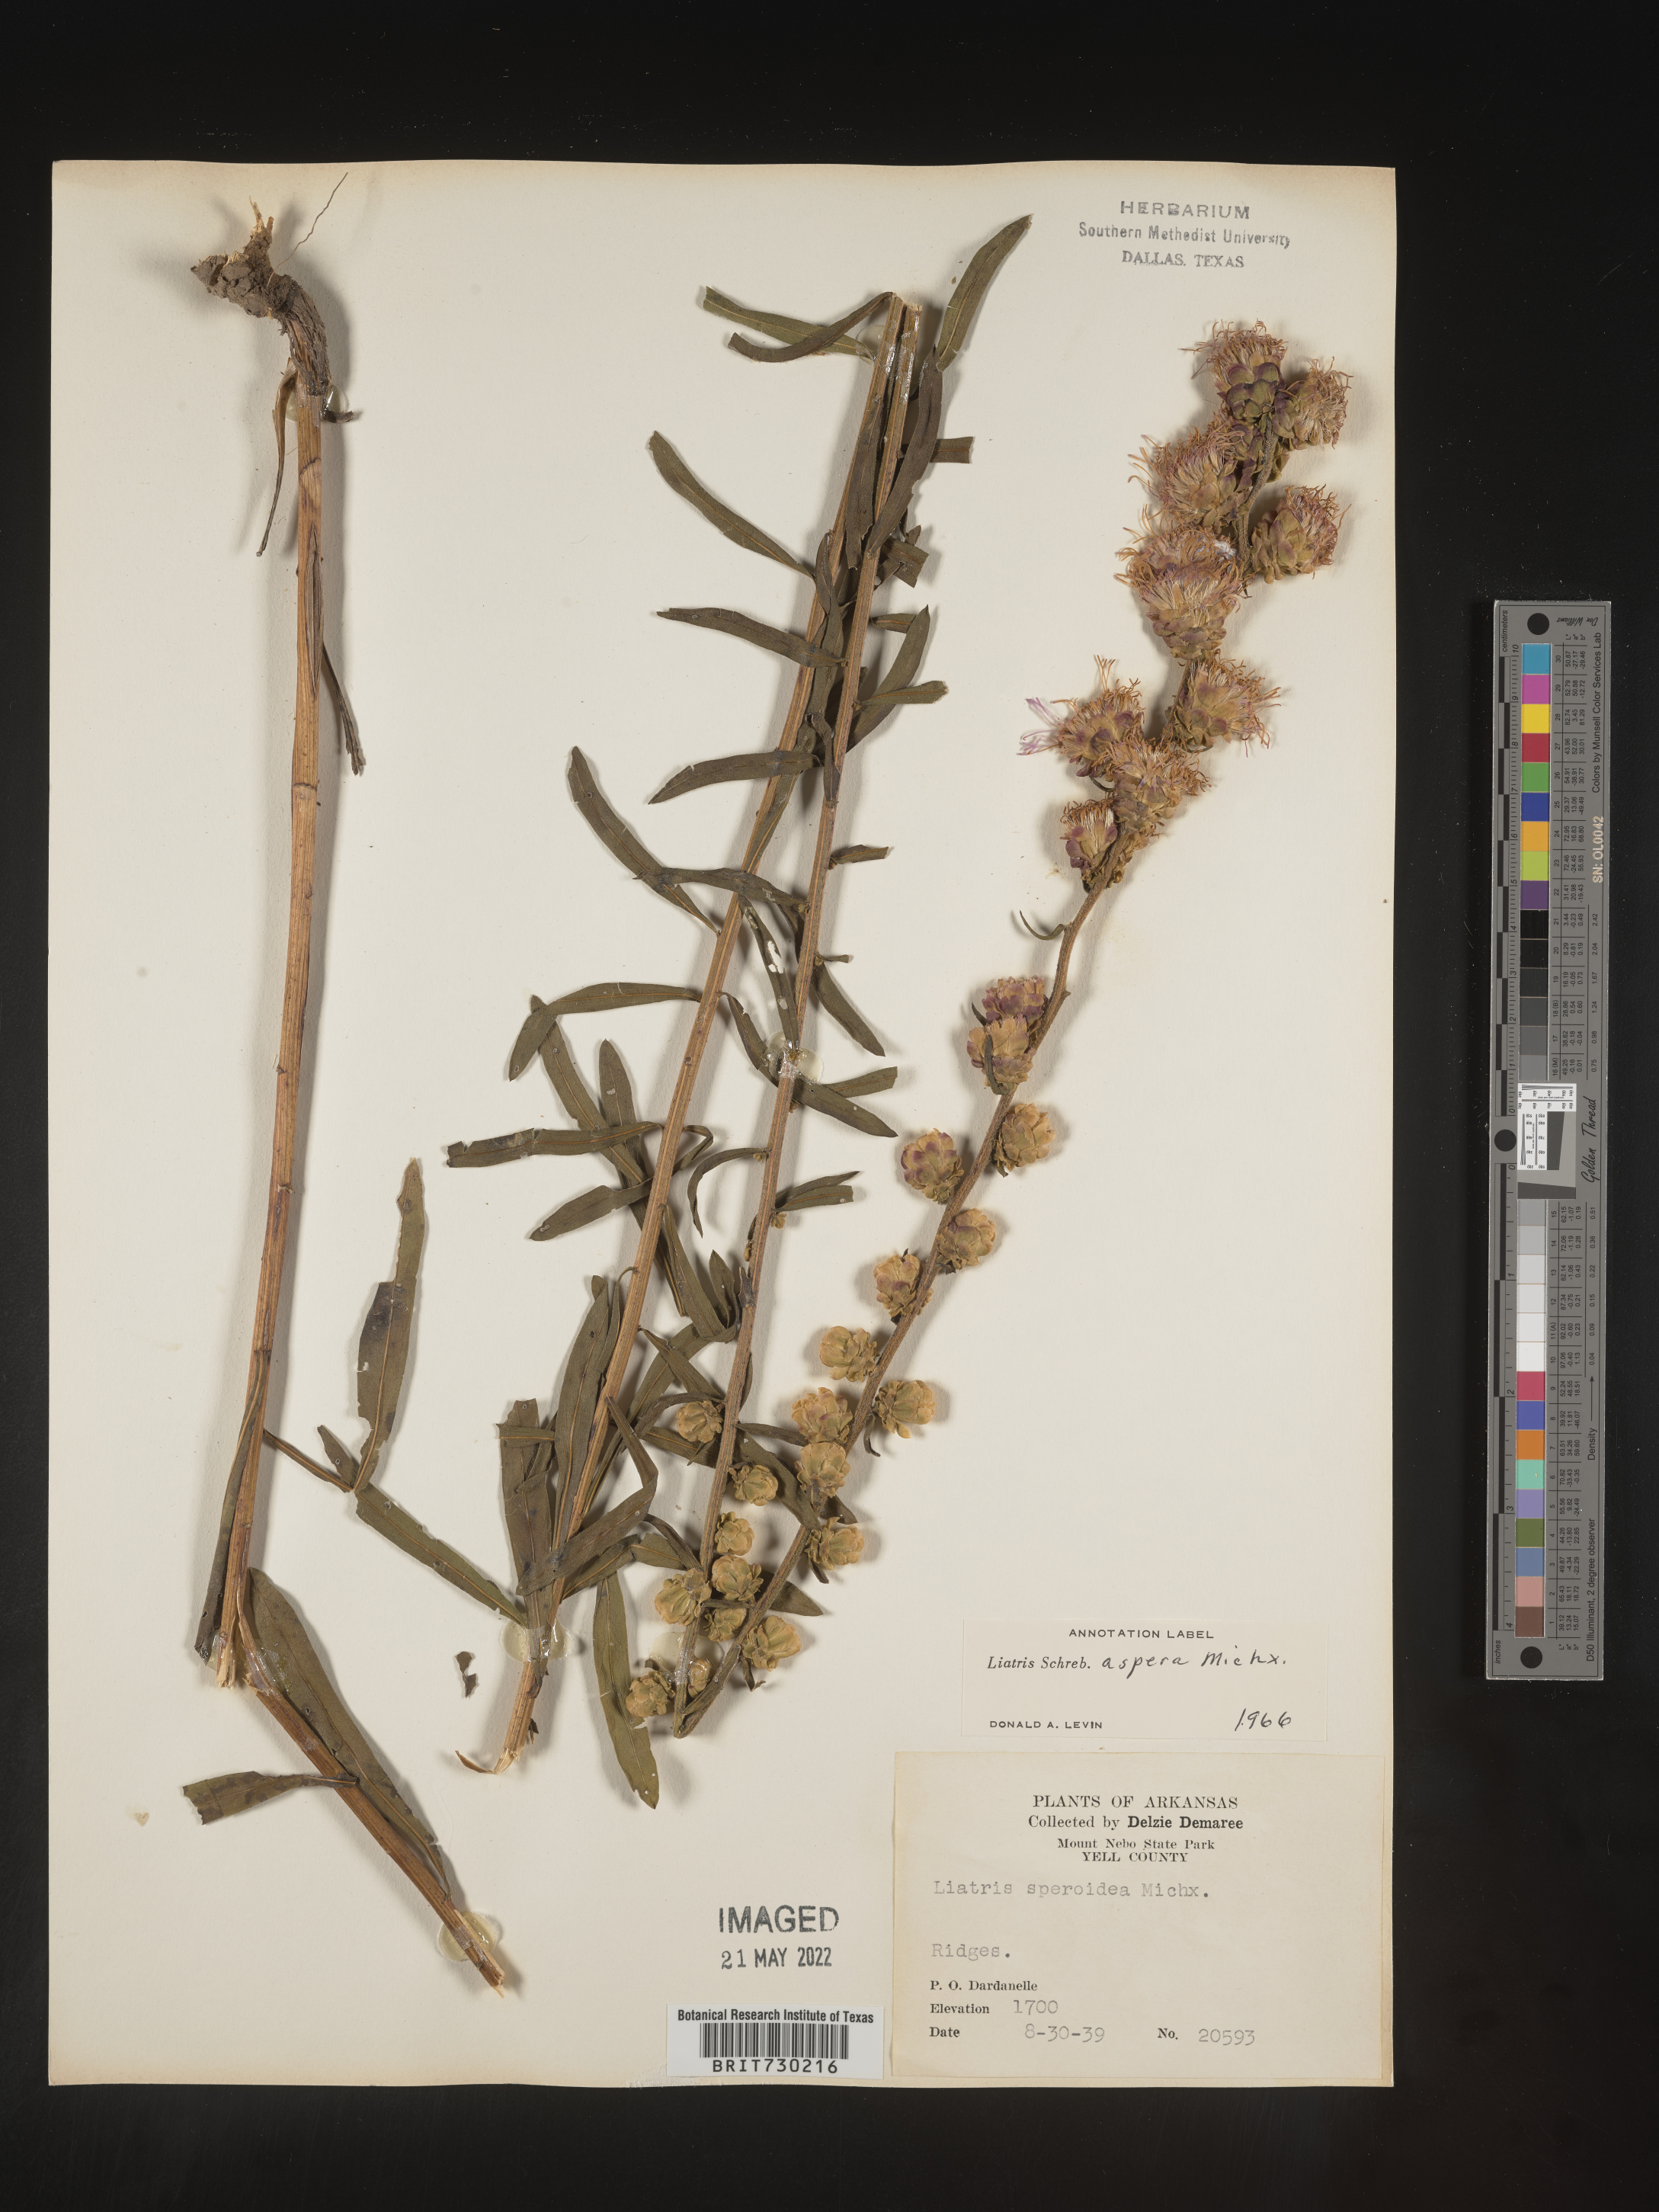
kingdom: Plantae
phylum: Tracheophyta
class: Magnoliopsida
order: Asterales
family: Asteraceae
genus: Liatris
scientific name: Liatris aspera
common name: Lacerate blazing-star
